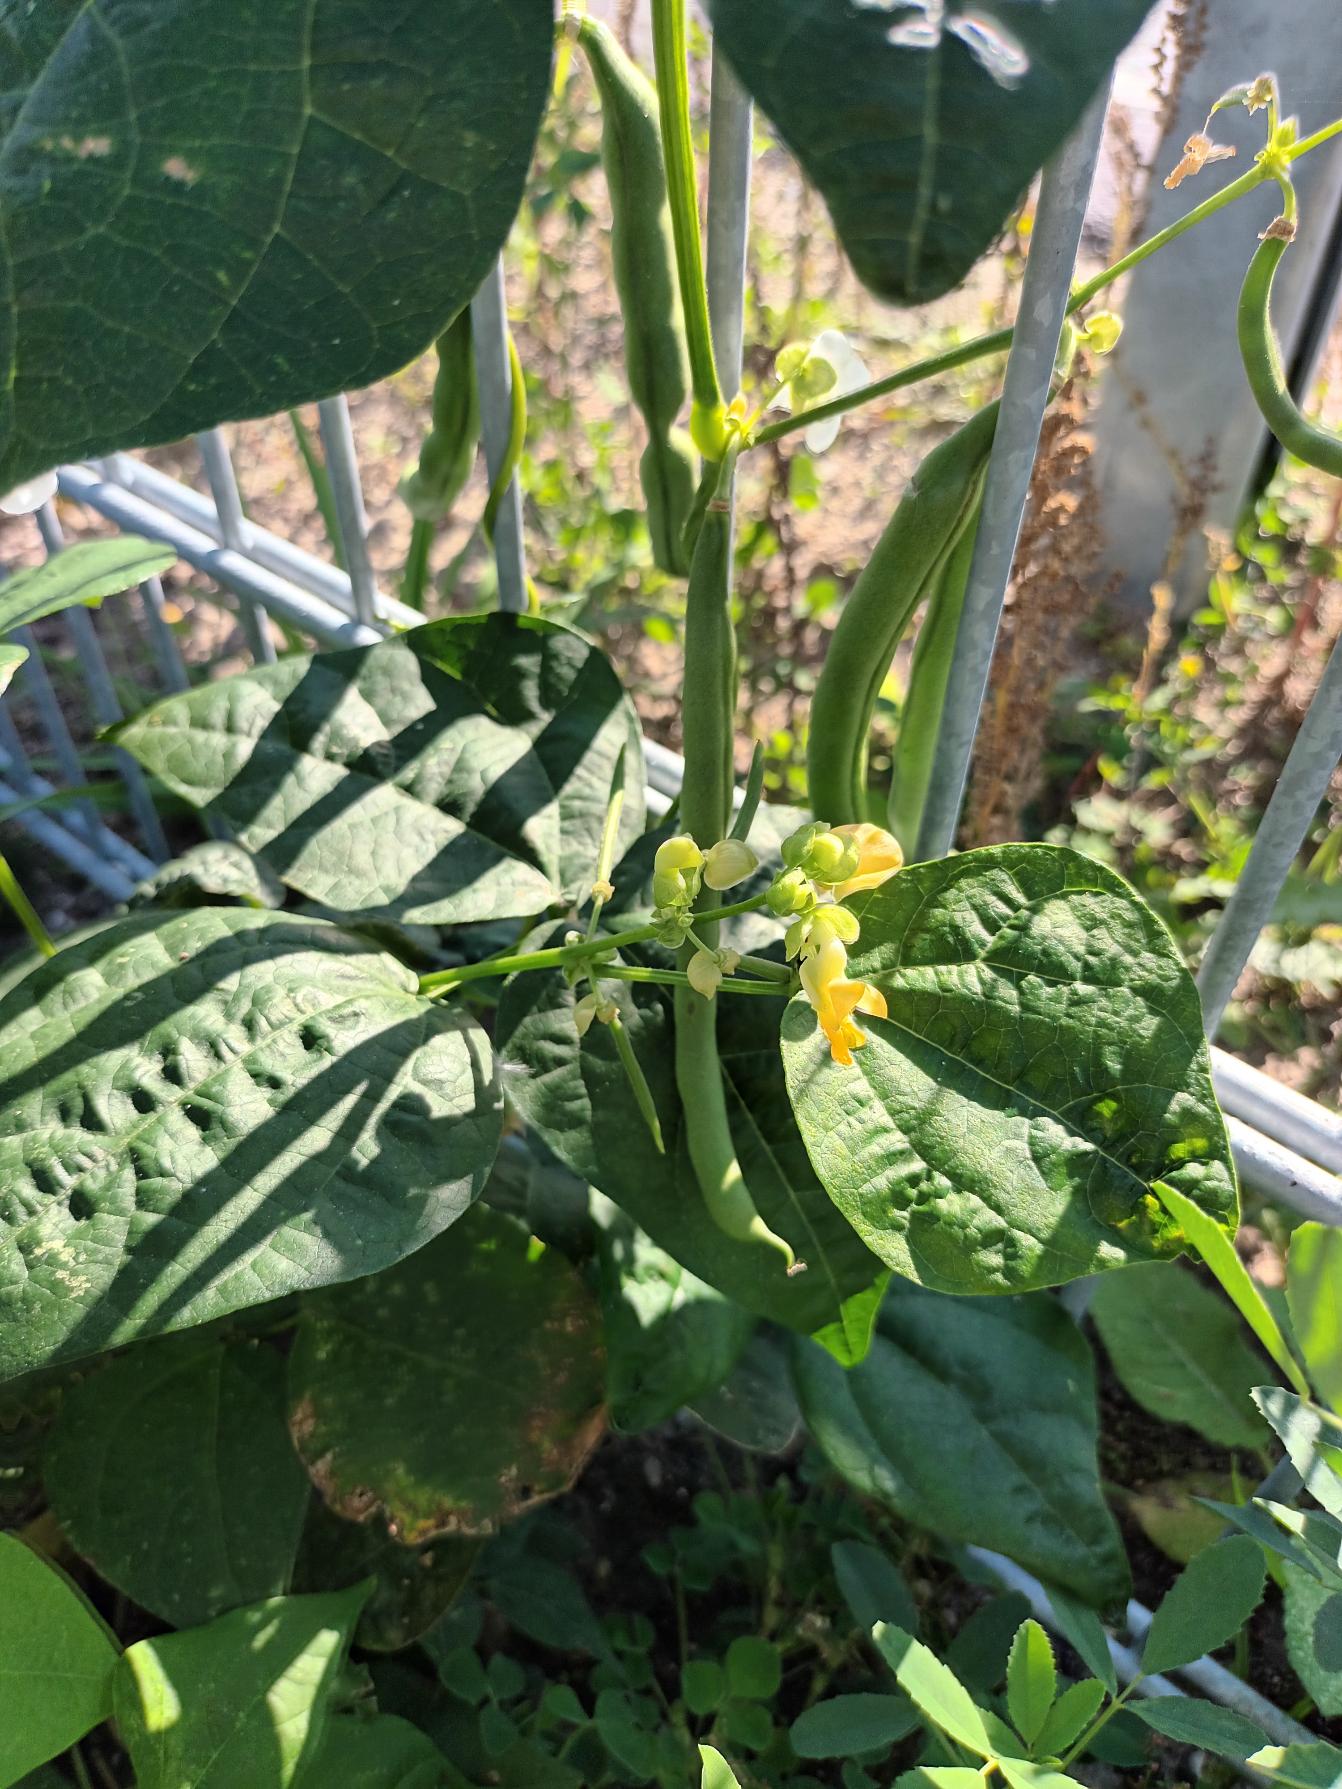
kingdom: Plantae
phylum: Tracheophyta
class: Magnoliopsida
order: Fabales
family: Fabaceae
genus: Phaseolus
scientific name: Phaseolus vulgaris
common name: Have-bønne
